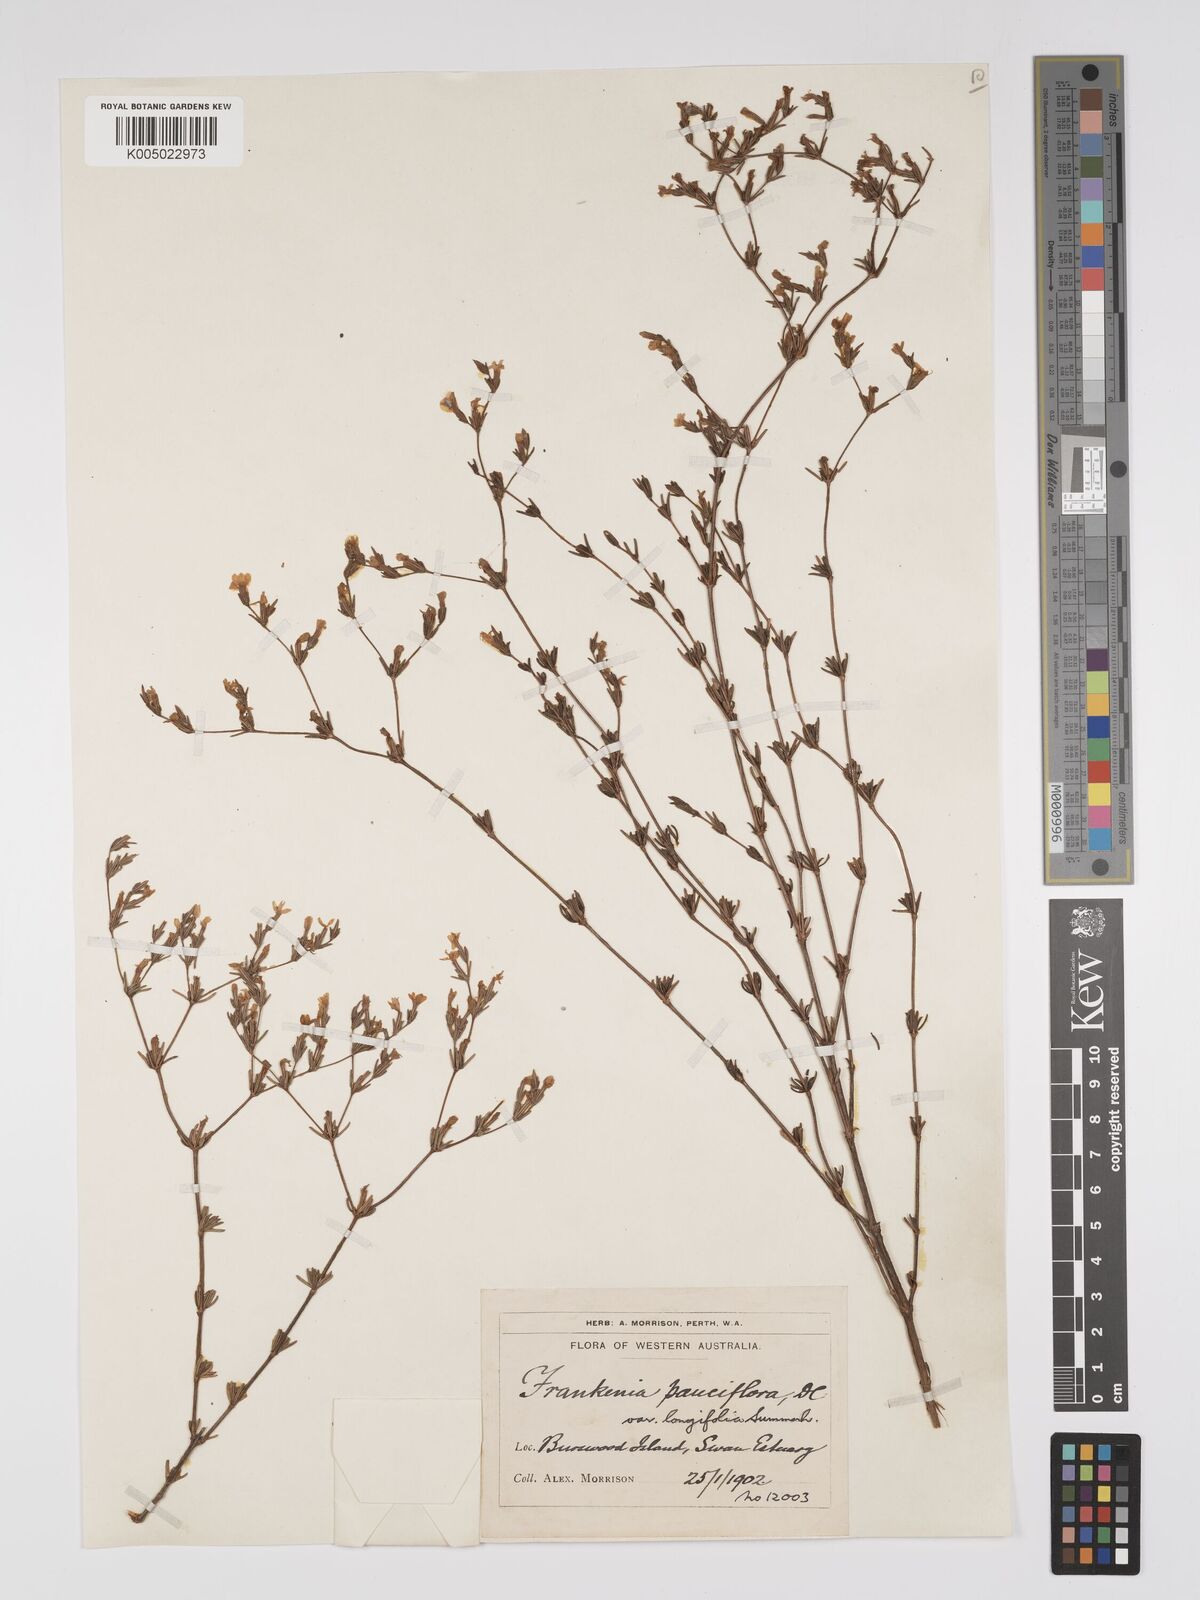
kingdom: Plantae
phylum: Tracheophyta
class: Magnoliopsida
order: Caryophyllales
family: Frankeniaceae
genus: Frankenia
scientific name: Frankenia pauciflora
